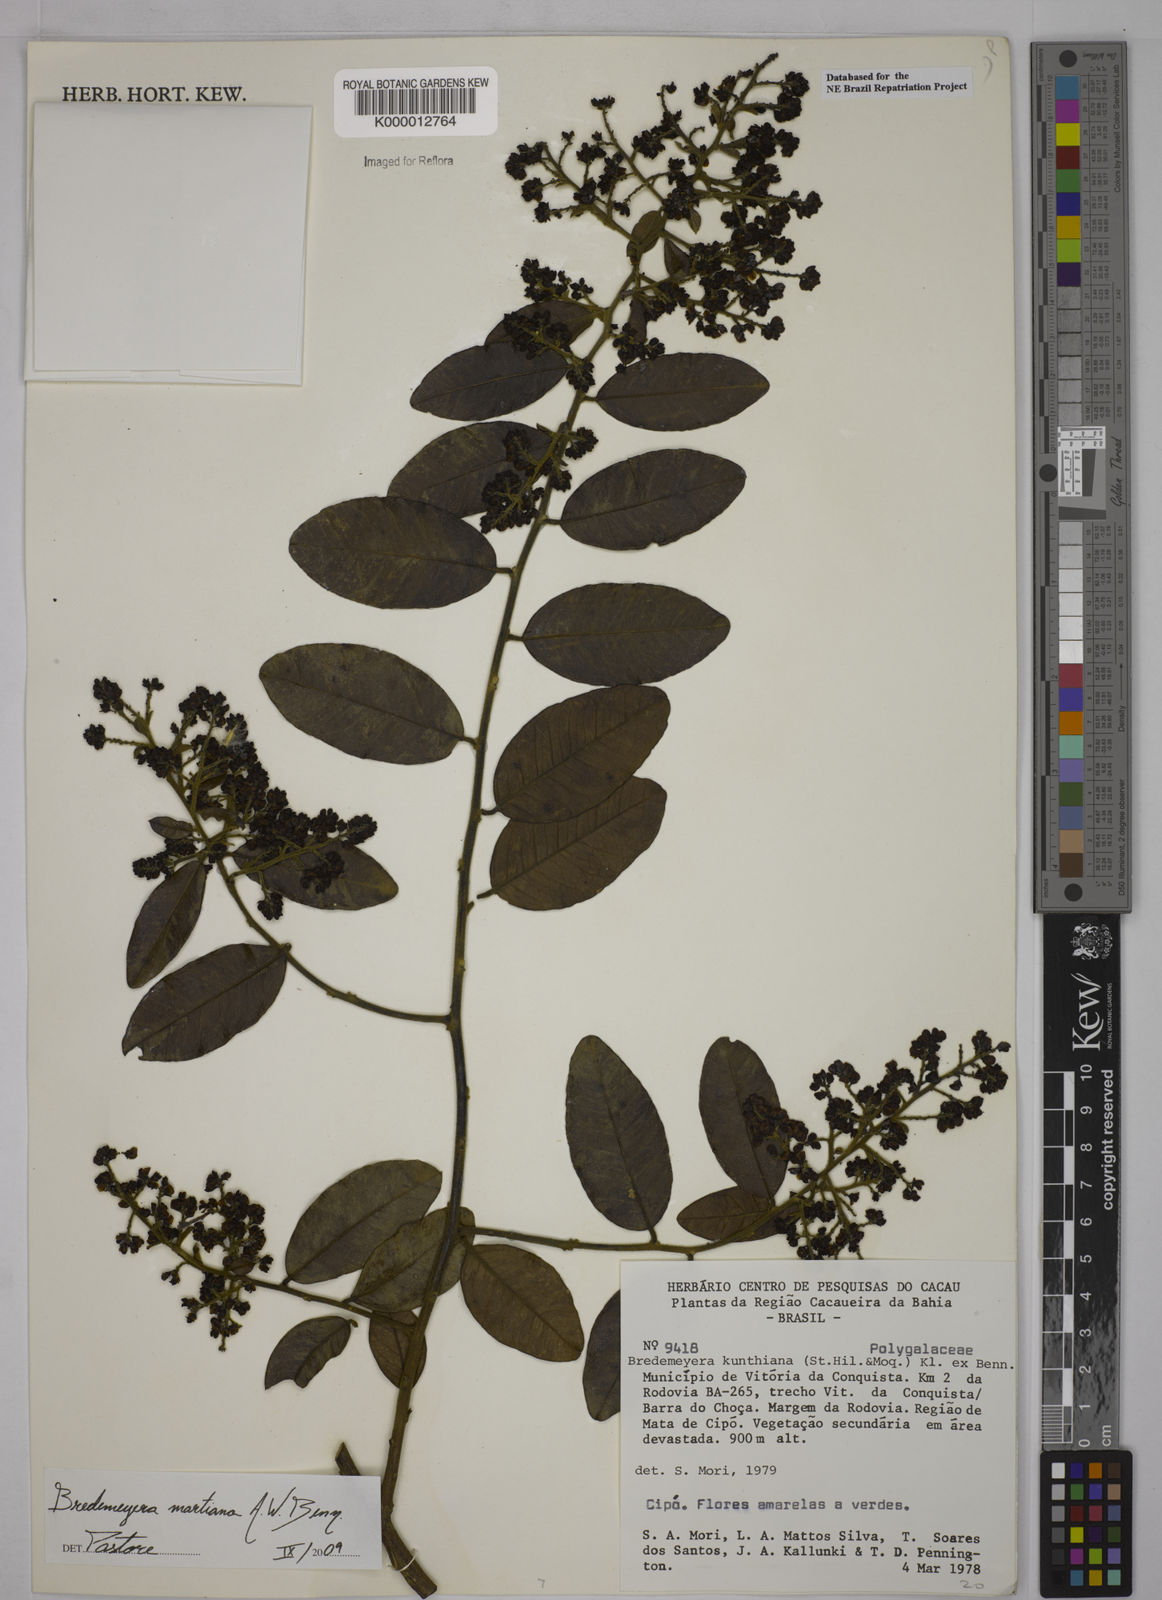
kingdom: Plantae
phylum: Tracheophyta
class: Magnoliopsida
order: Fabales
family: Polygalaceae
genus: Bredemeyera
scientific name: Bredemeyera hebeclada
